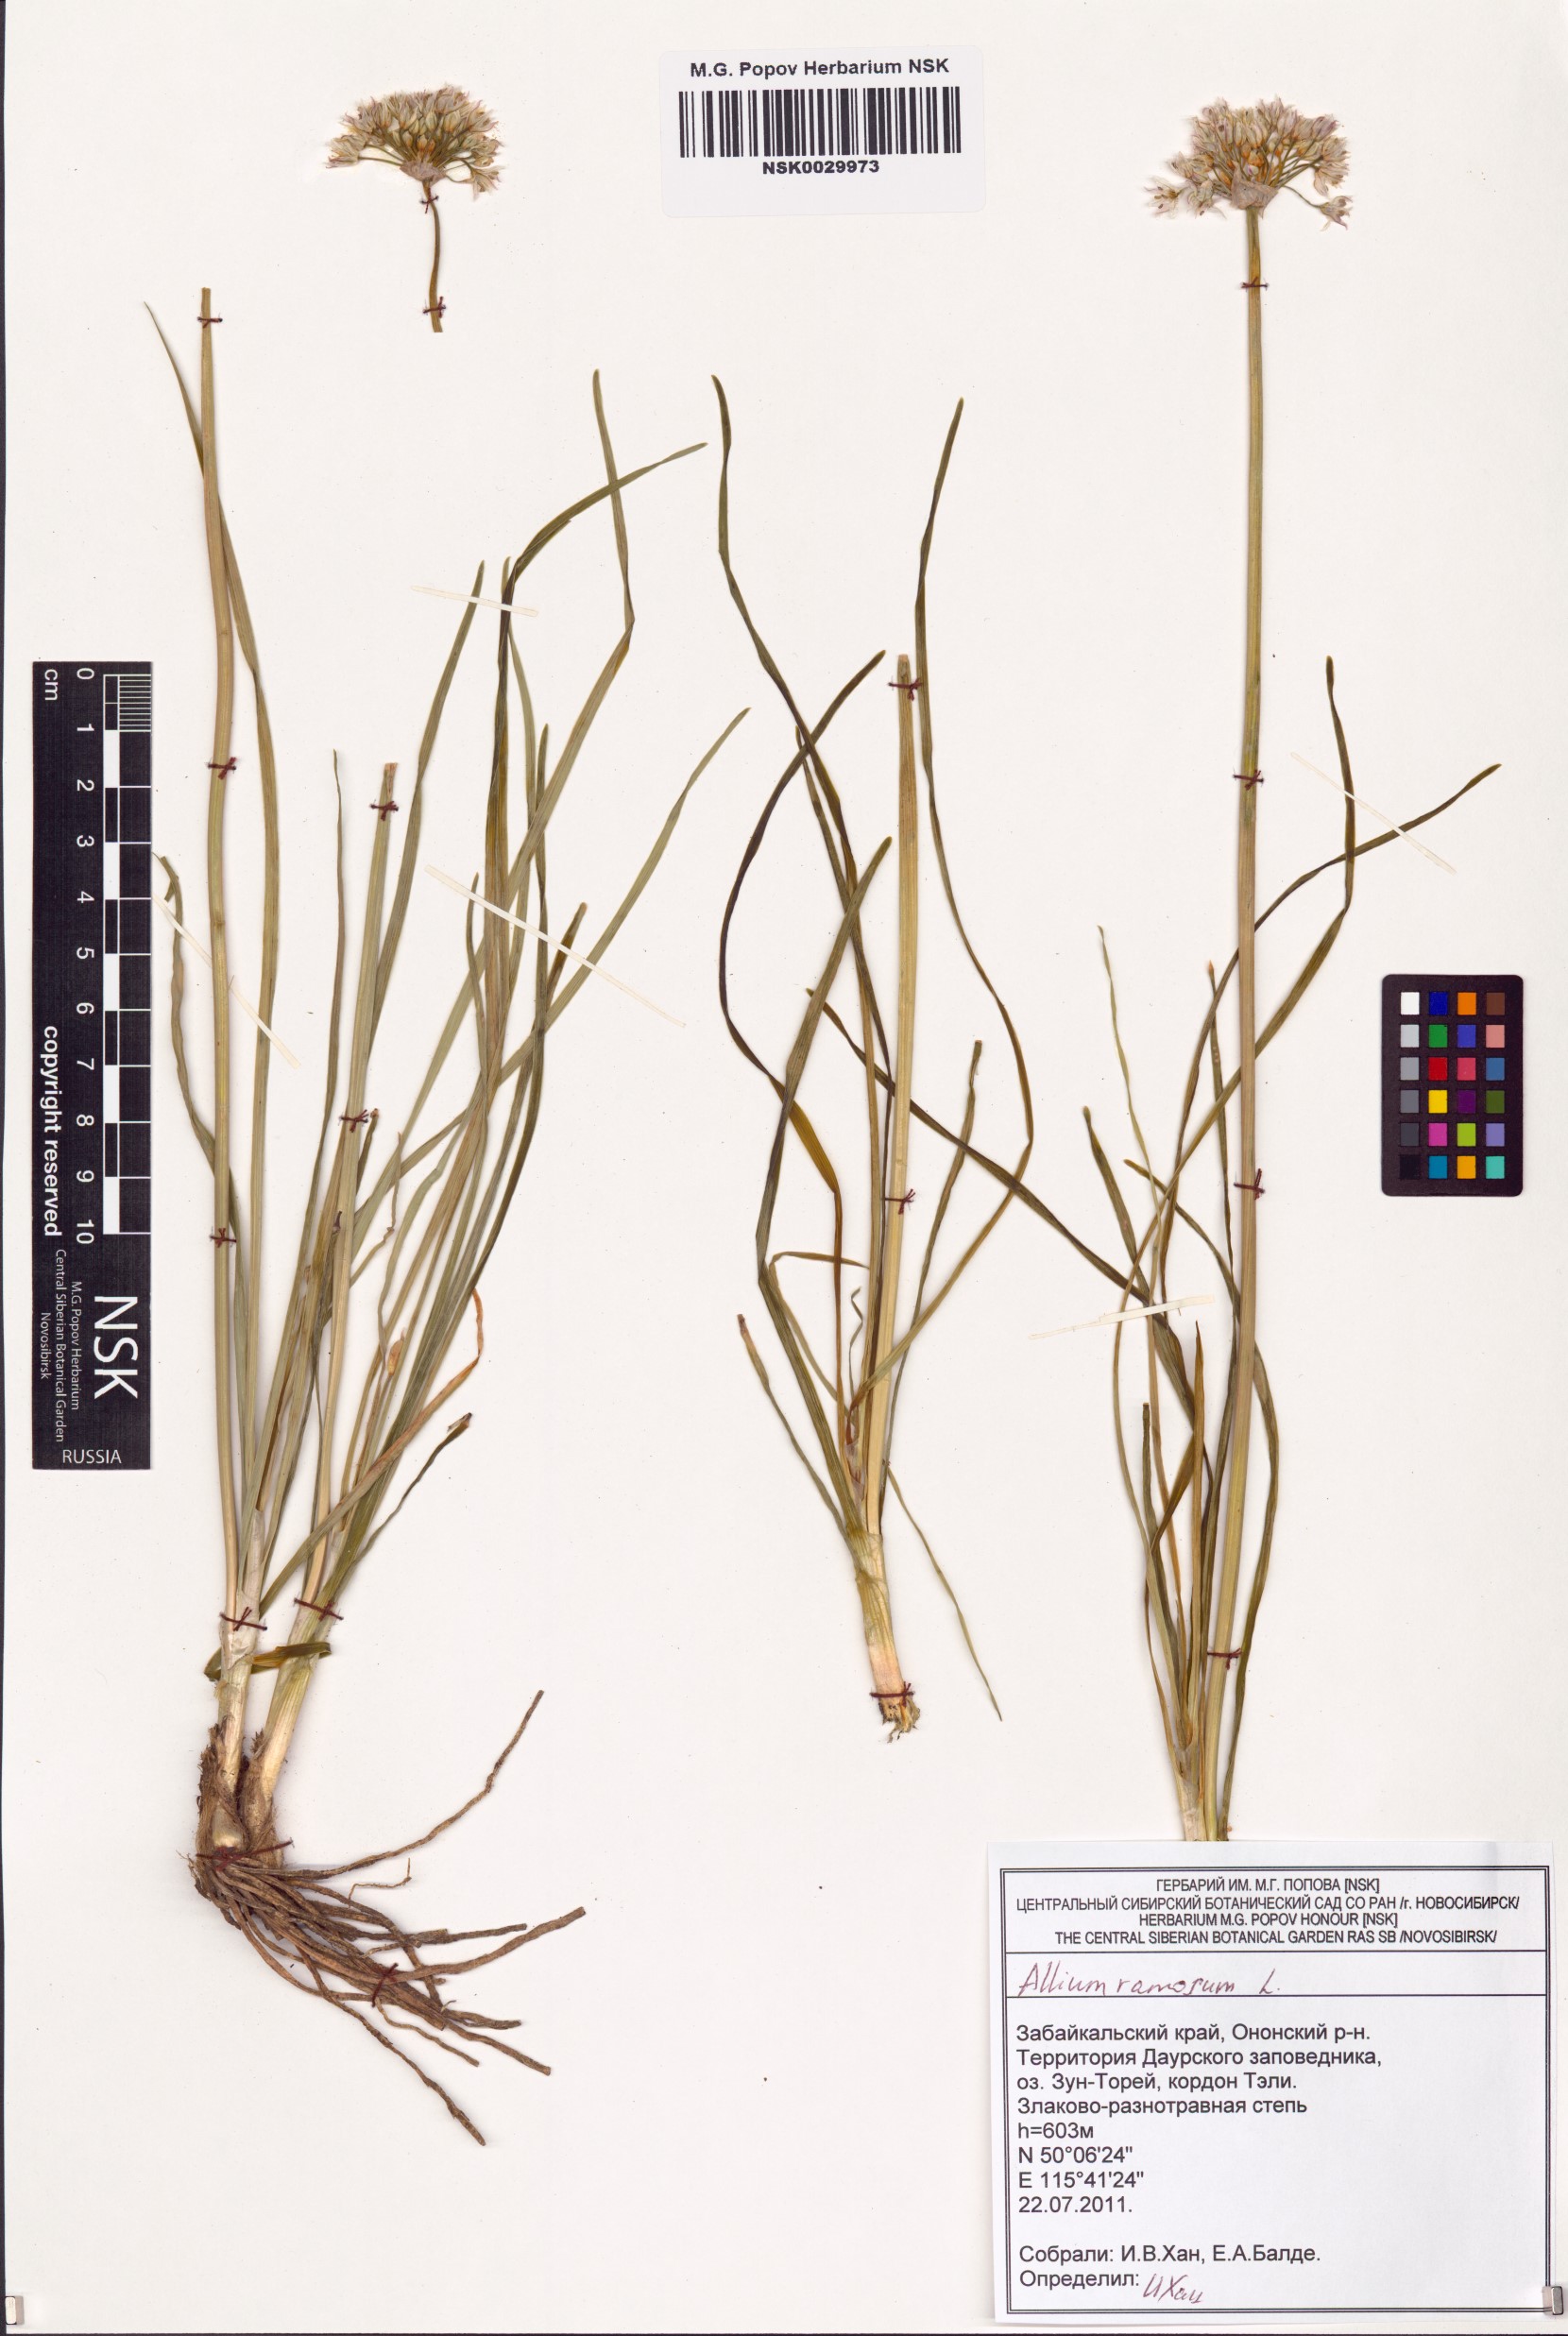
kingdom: Plantae
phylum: Tracheophyta
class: Liliopsida
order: Asparagales
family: Amaryllidaceae
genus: Allium
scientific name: Allium ramosum
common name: Fragrant garlic
